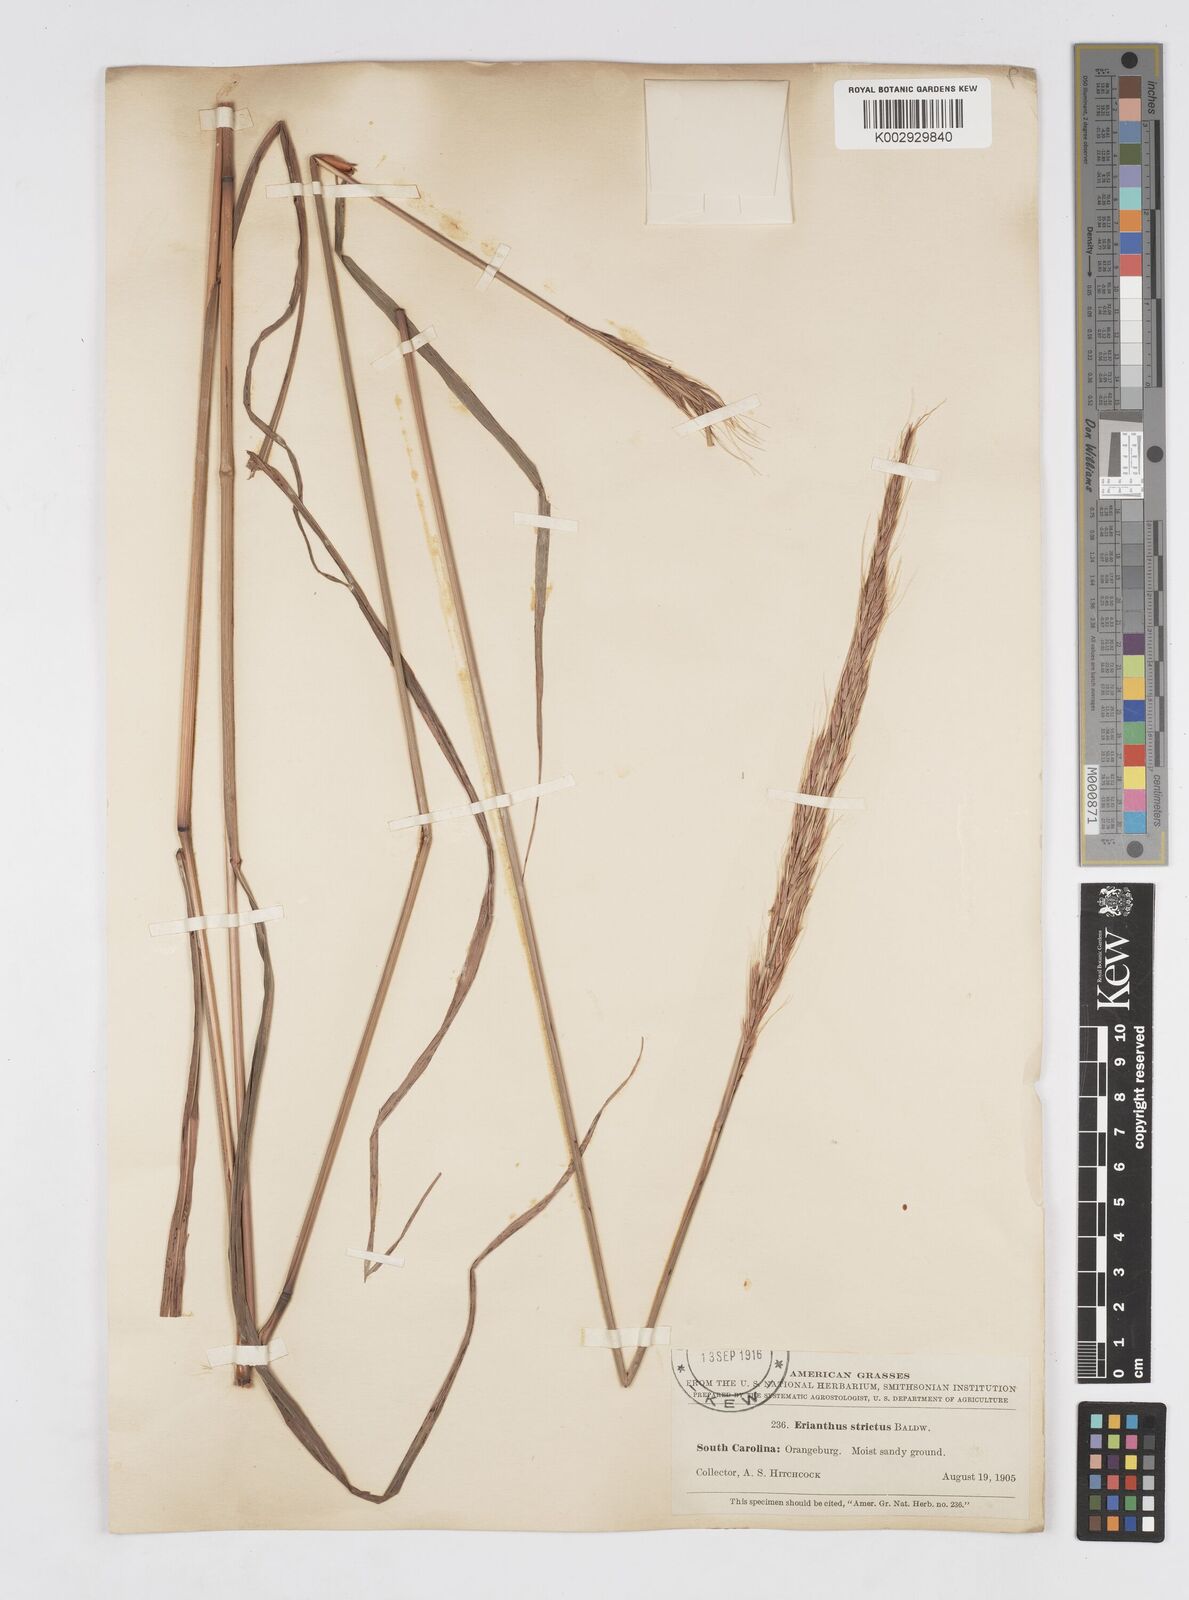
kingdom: Plantae
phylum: Tracheophyta
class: Liliopsida
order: Poales
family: Poaceae
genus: Erianthus
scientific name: Erianthus strictus
